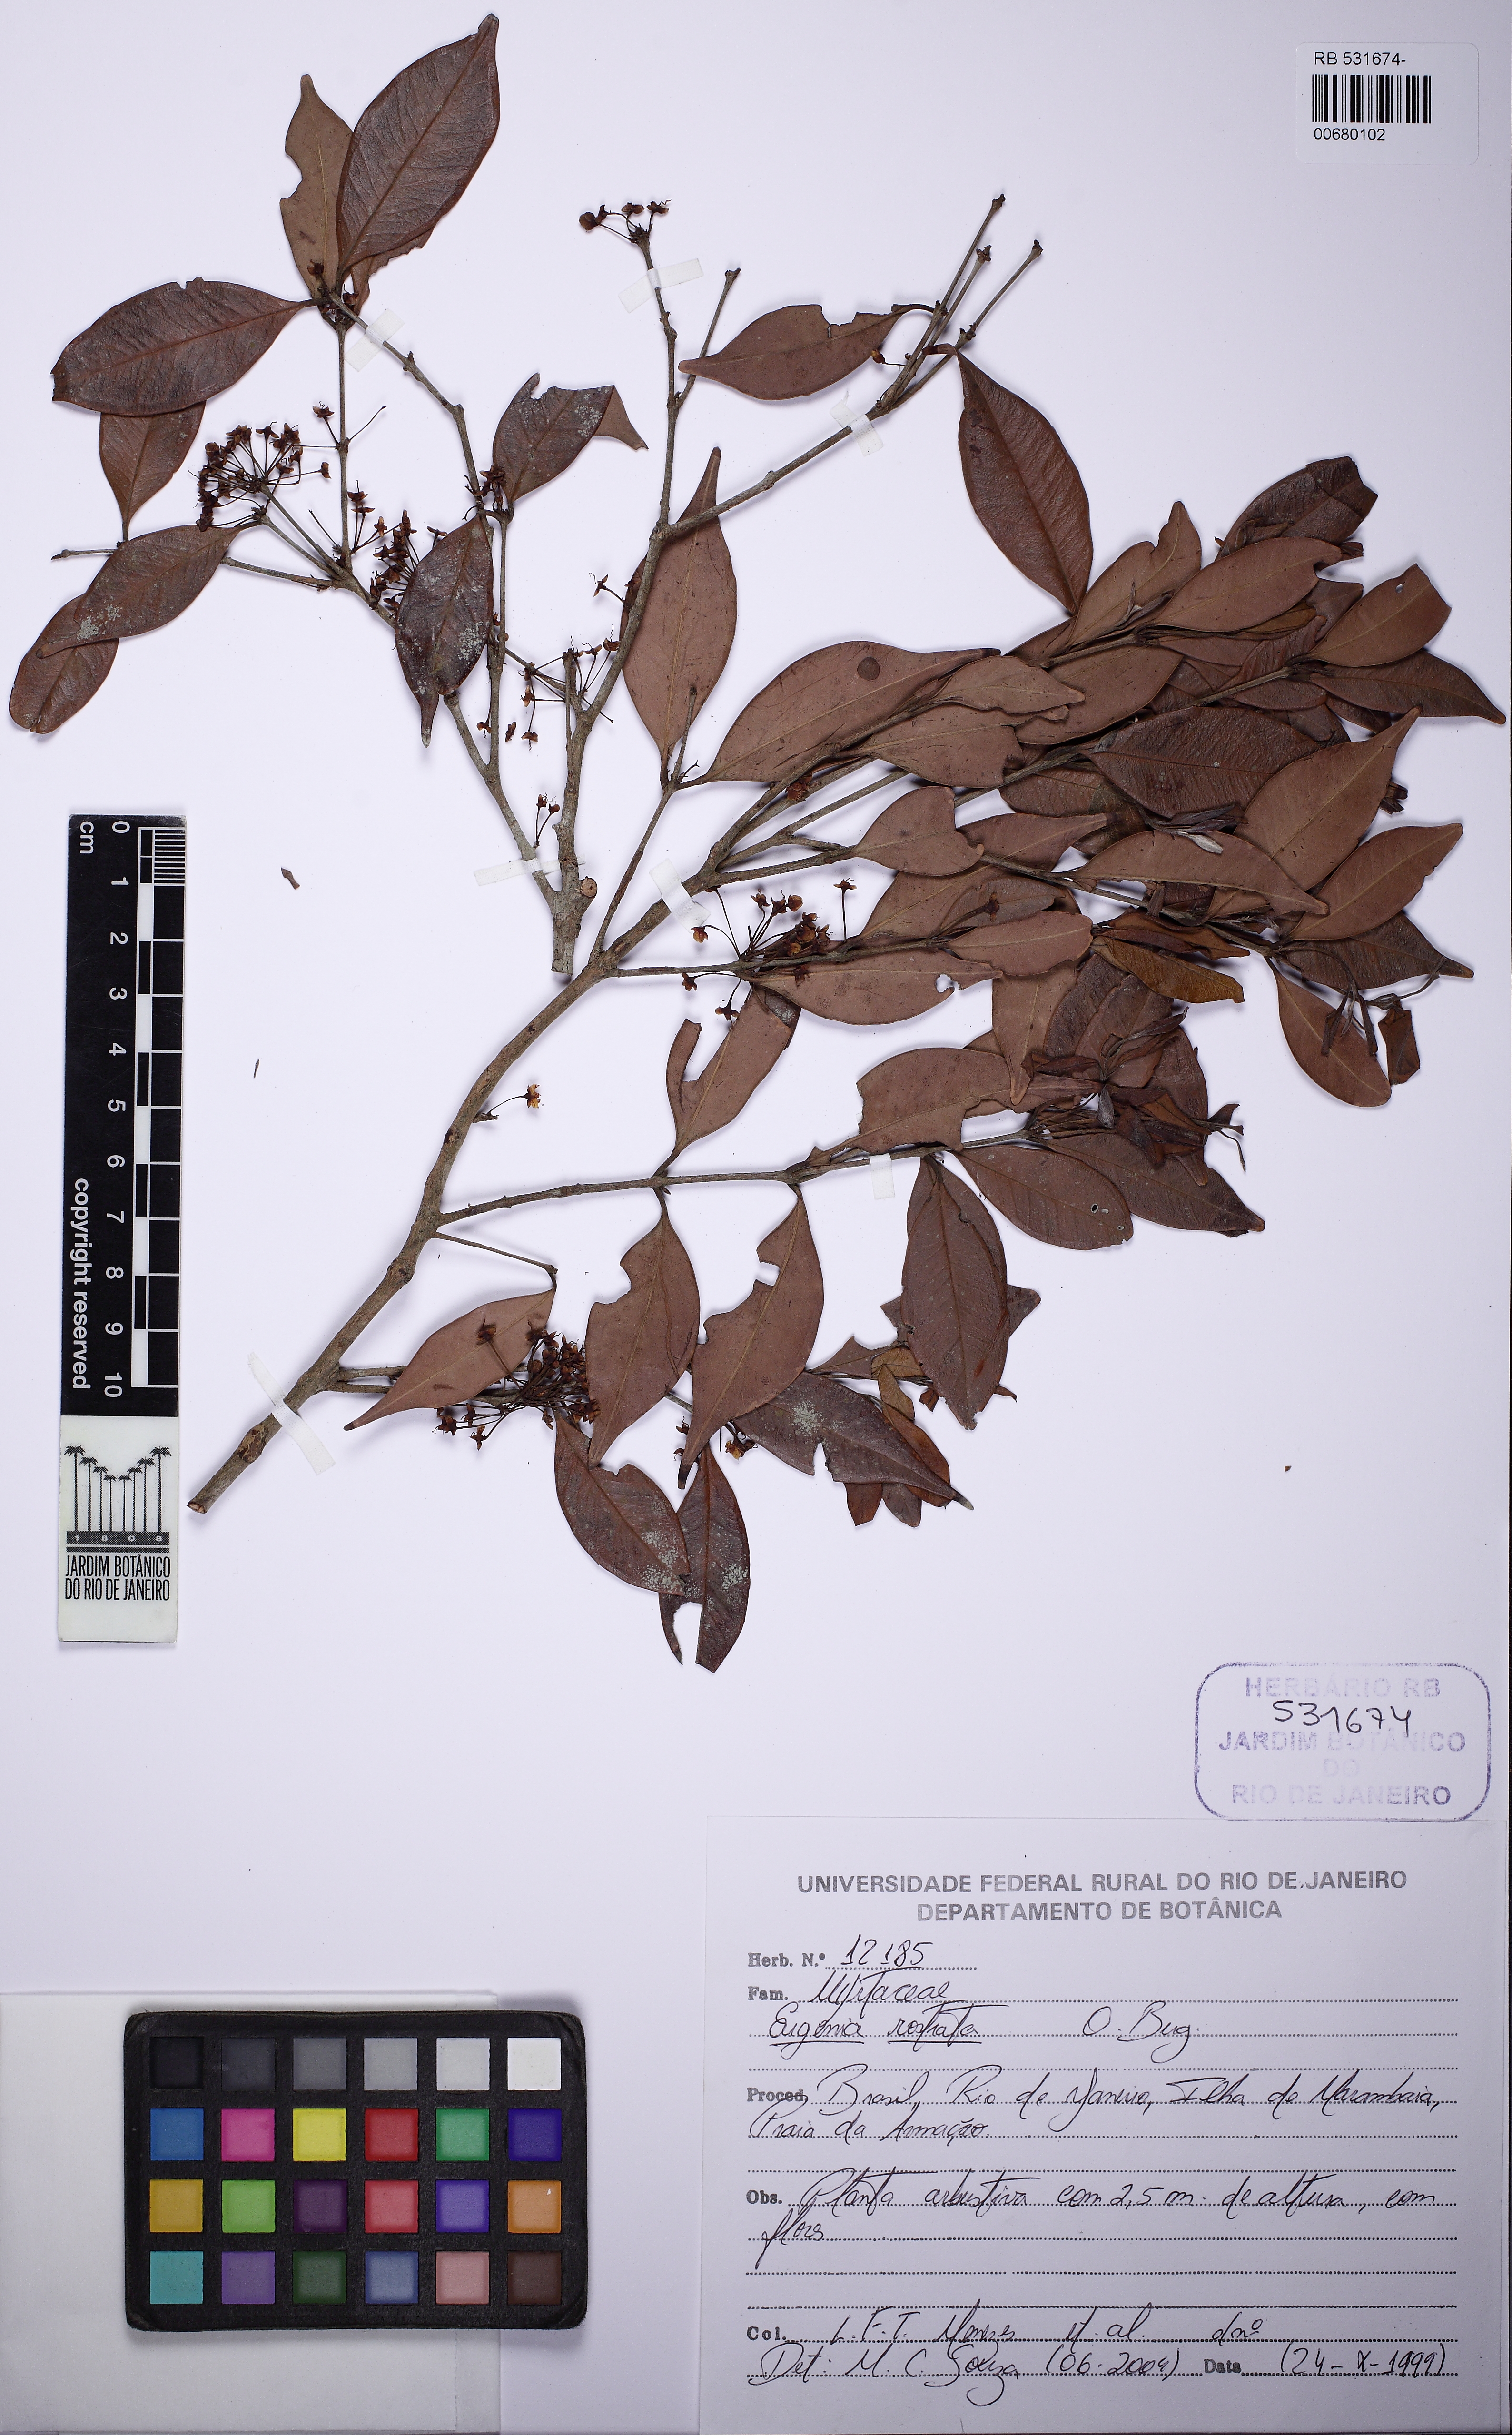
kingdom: Plantae
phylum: Tracheophyta
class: Magnoliopsida
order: Myrtales
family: Myrtaceae
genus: Eugenia
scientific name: Eugenia rostrata
